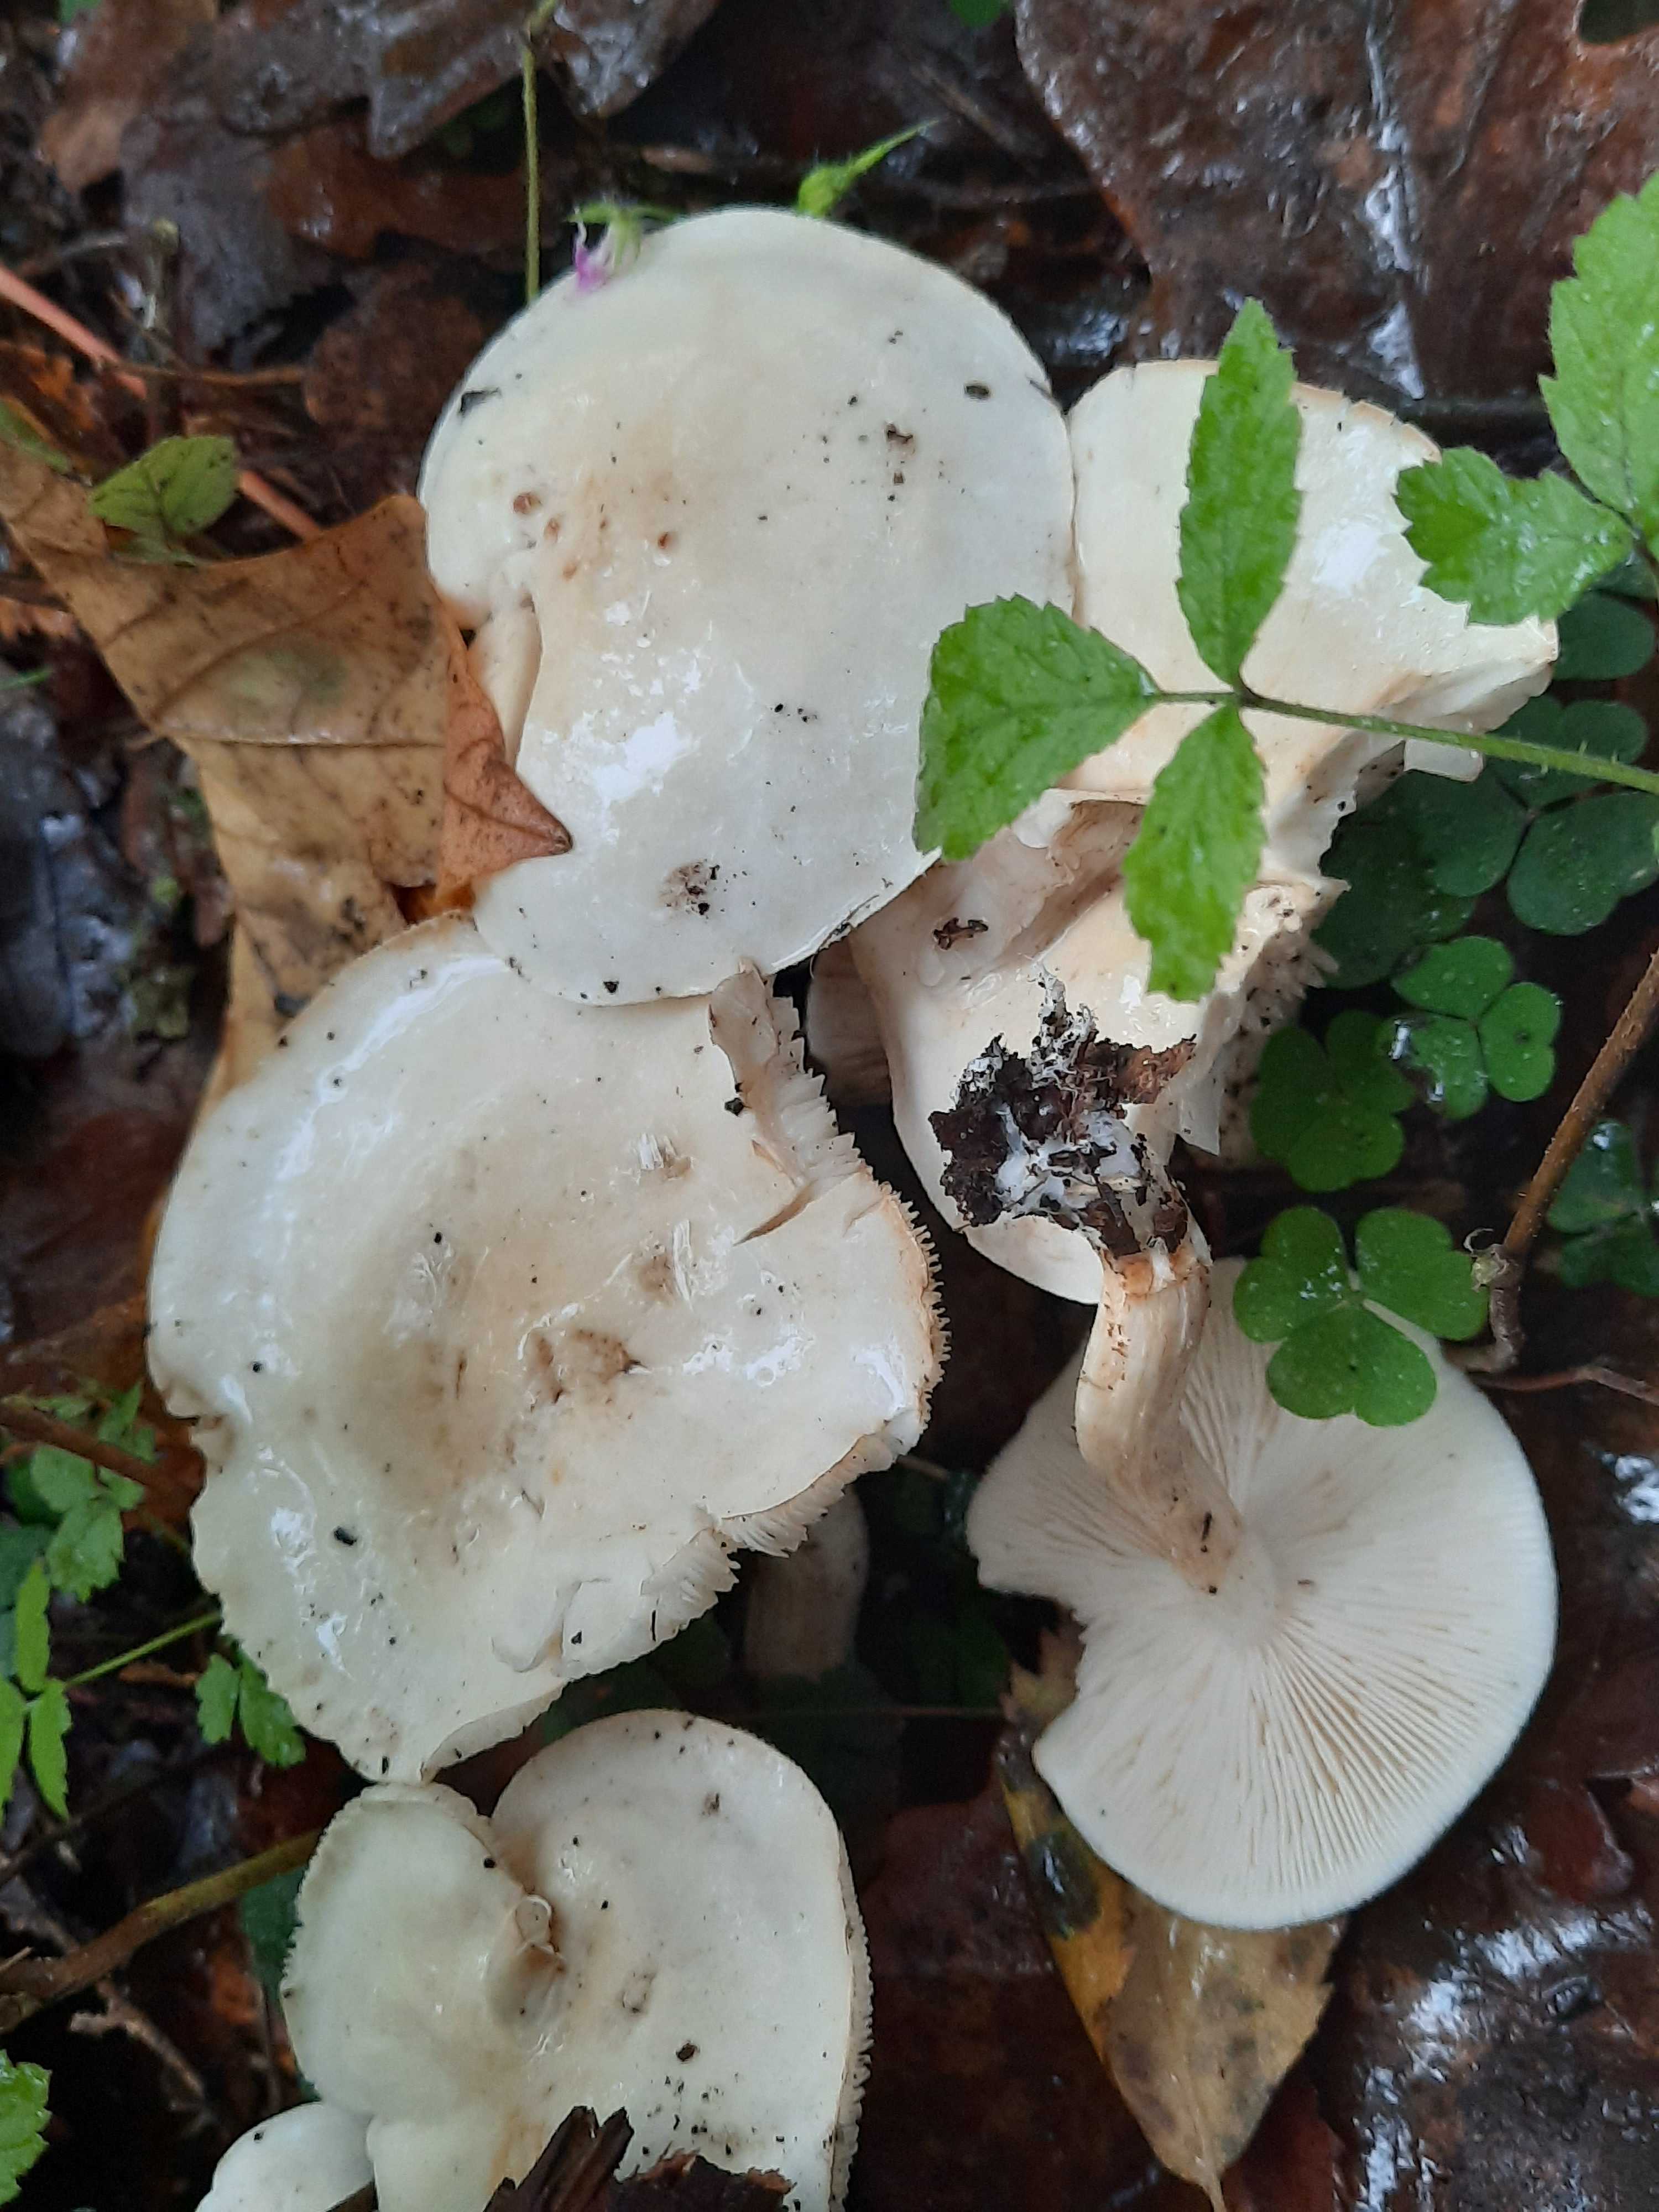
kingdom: Fungi
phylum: Basidiomycota
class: Agaricomycetes
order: Agaricales
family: Tricholomataceae
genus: Tricholoma
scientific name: Tricholoma album
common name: honning-ridderhat
